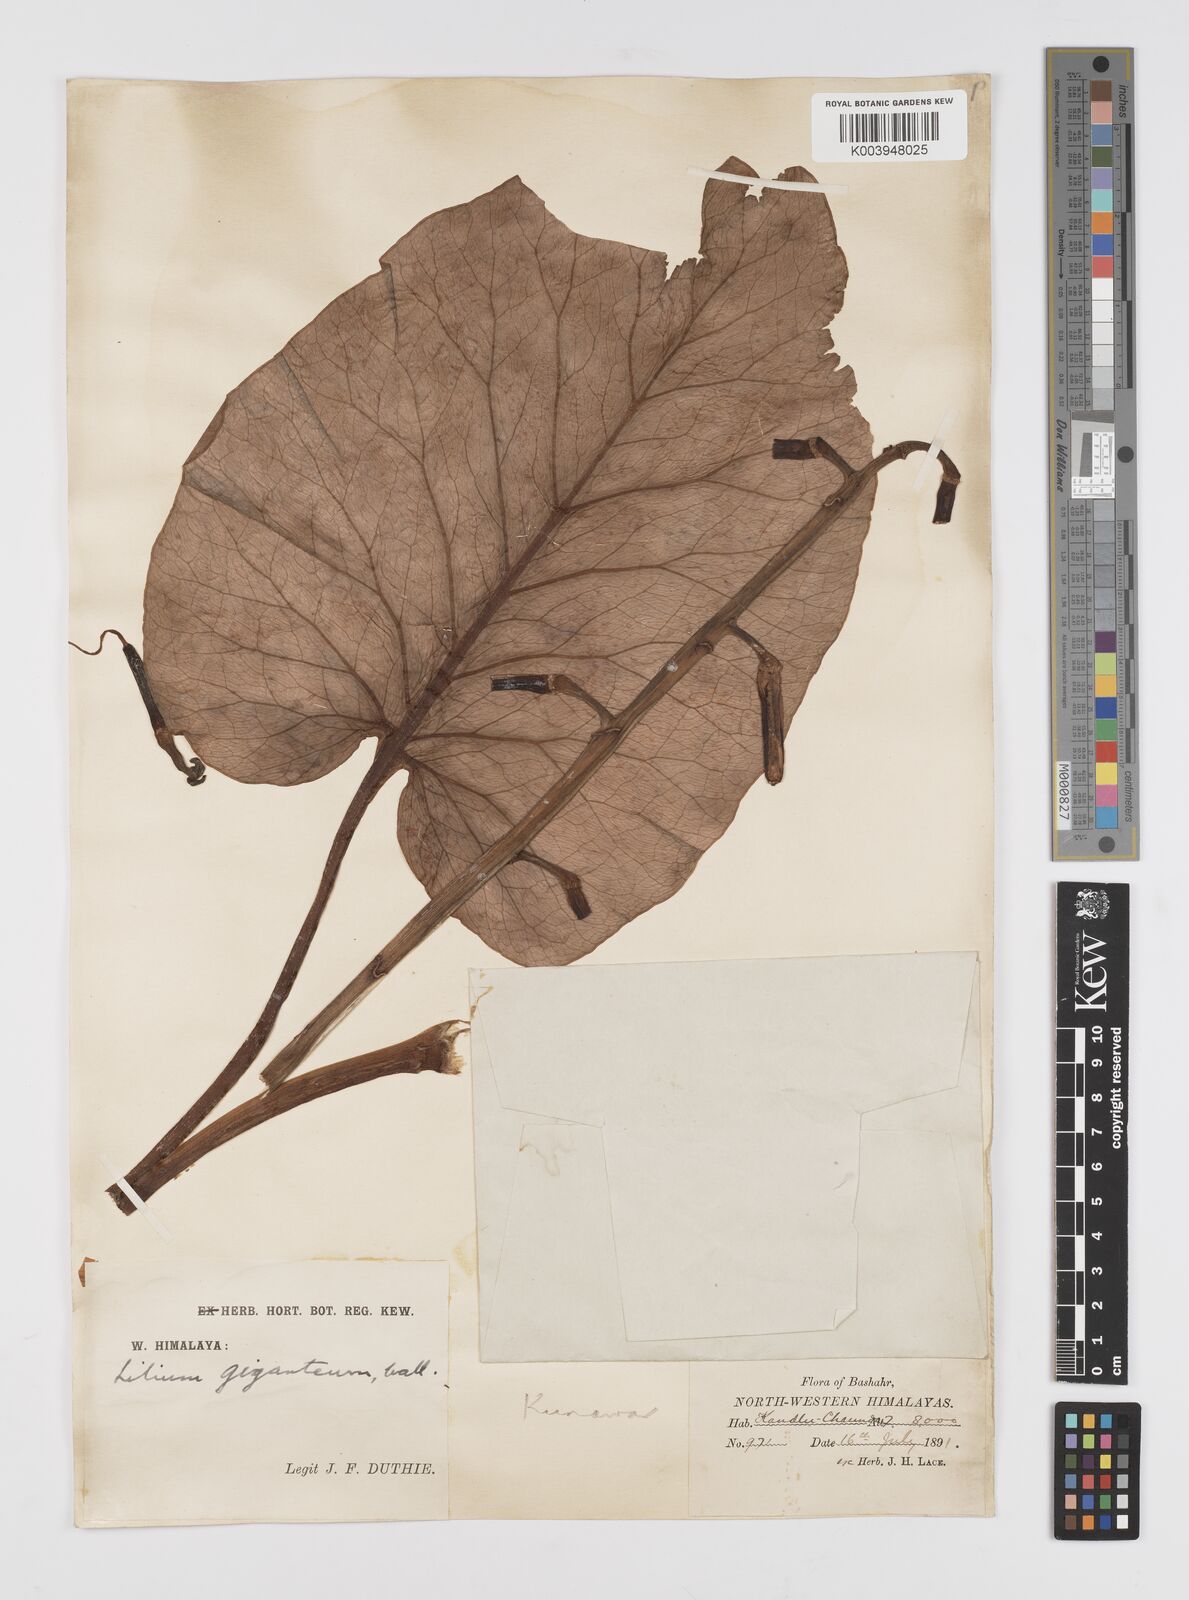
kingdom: Plantae
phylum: Tracheophyta
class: Liliopsida
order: Liliales
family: Liliaceae
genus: Cardiocrinum
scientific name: Cardiocrinum giganteum
